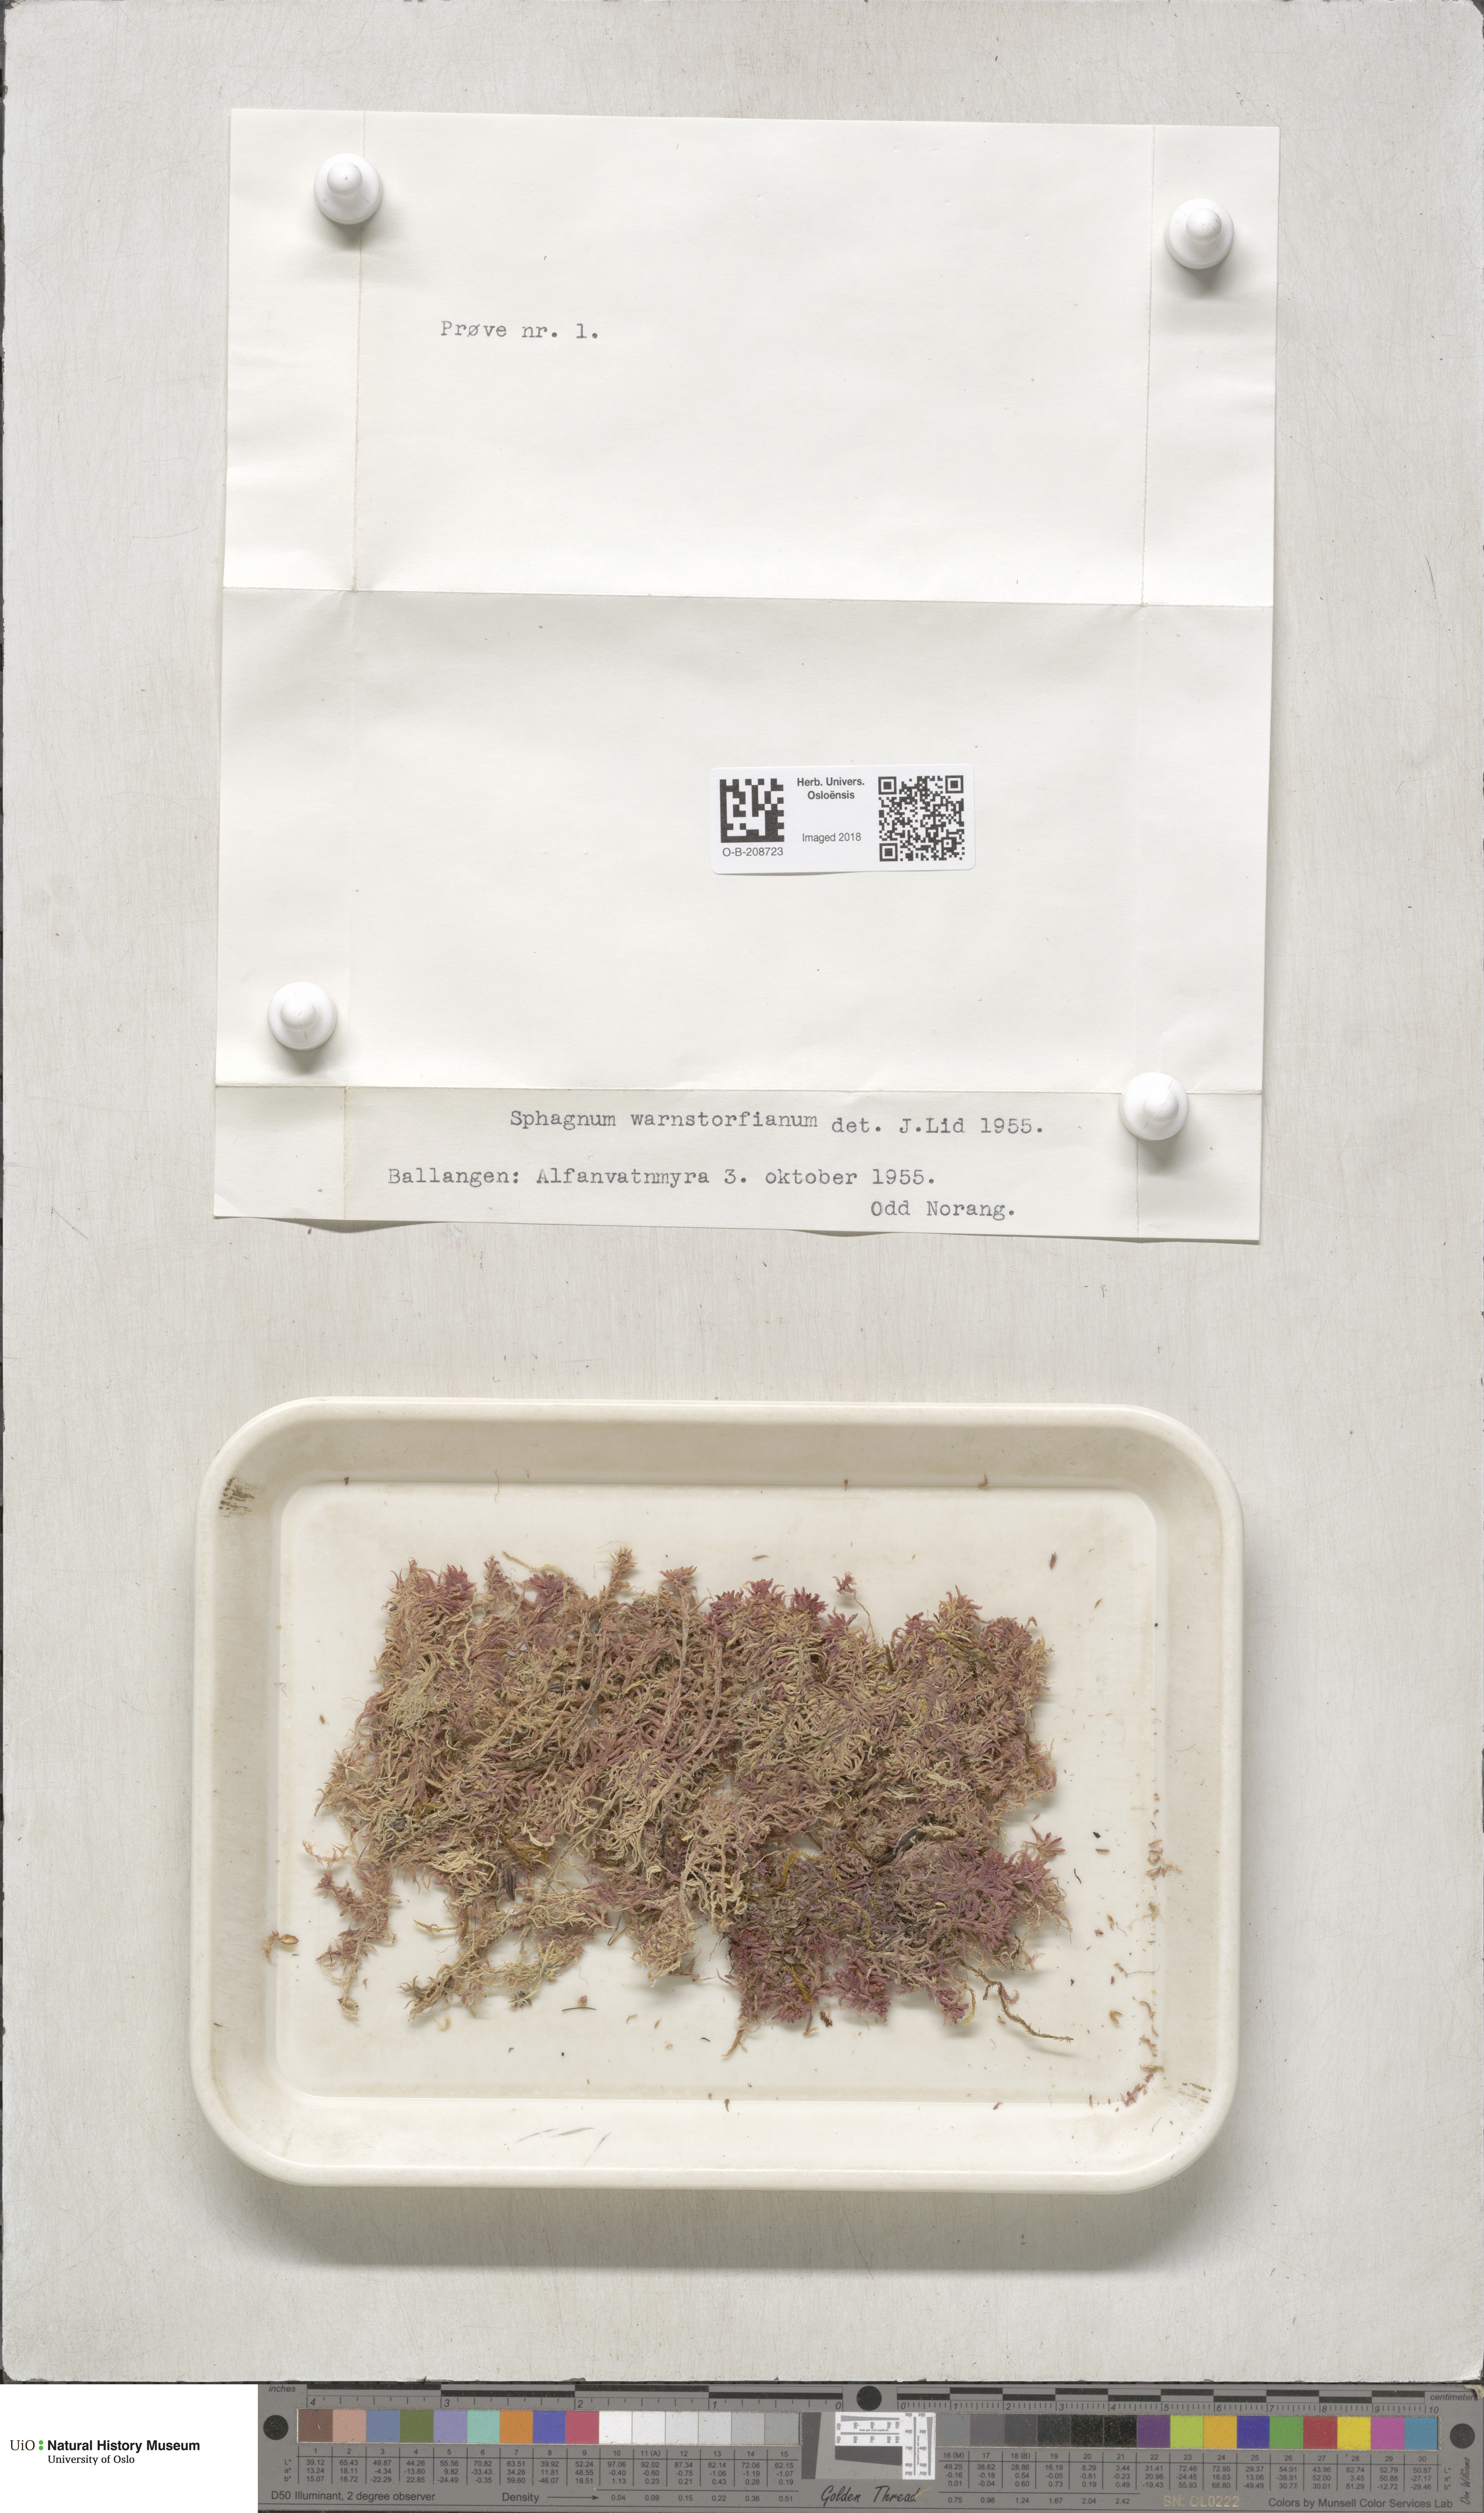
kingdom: Plantae
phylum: Bryophyta
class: Sphagnopsida
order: Sphagnales
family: Sphagnaceae
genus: Sphagnum
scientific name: Sphagnum warnstorfii
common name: Warnstorf's peat moss
